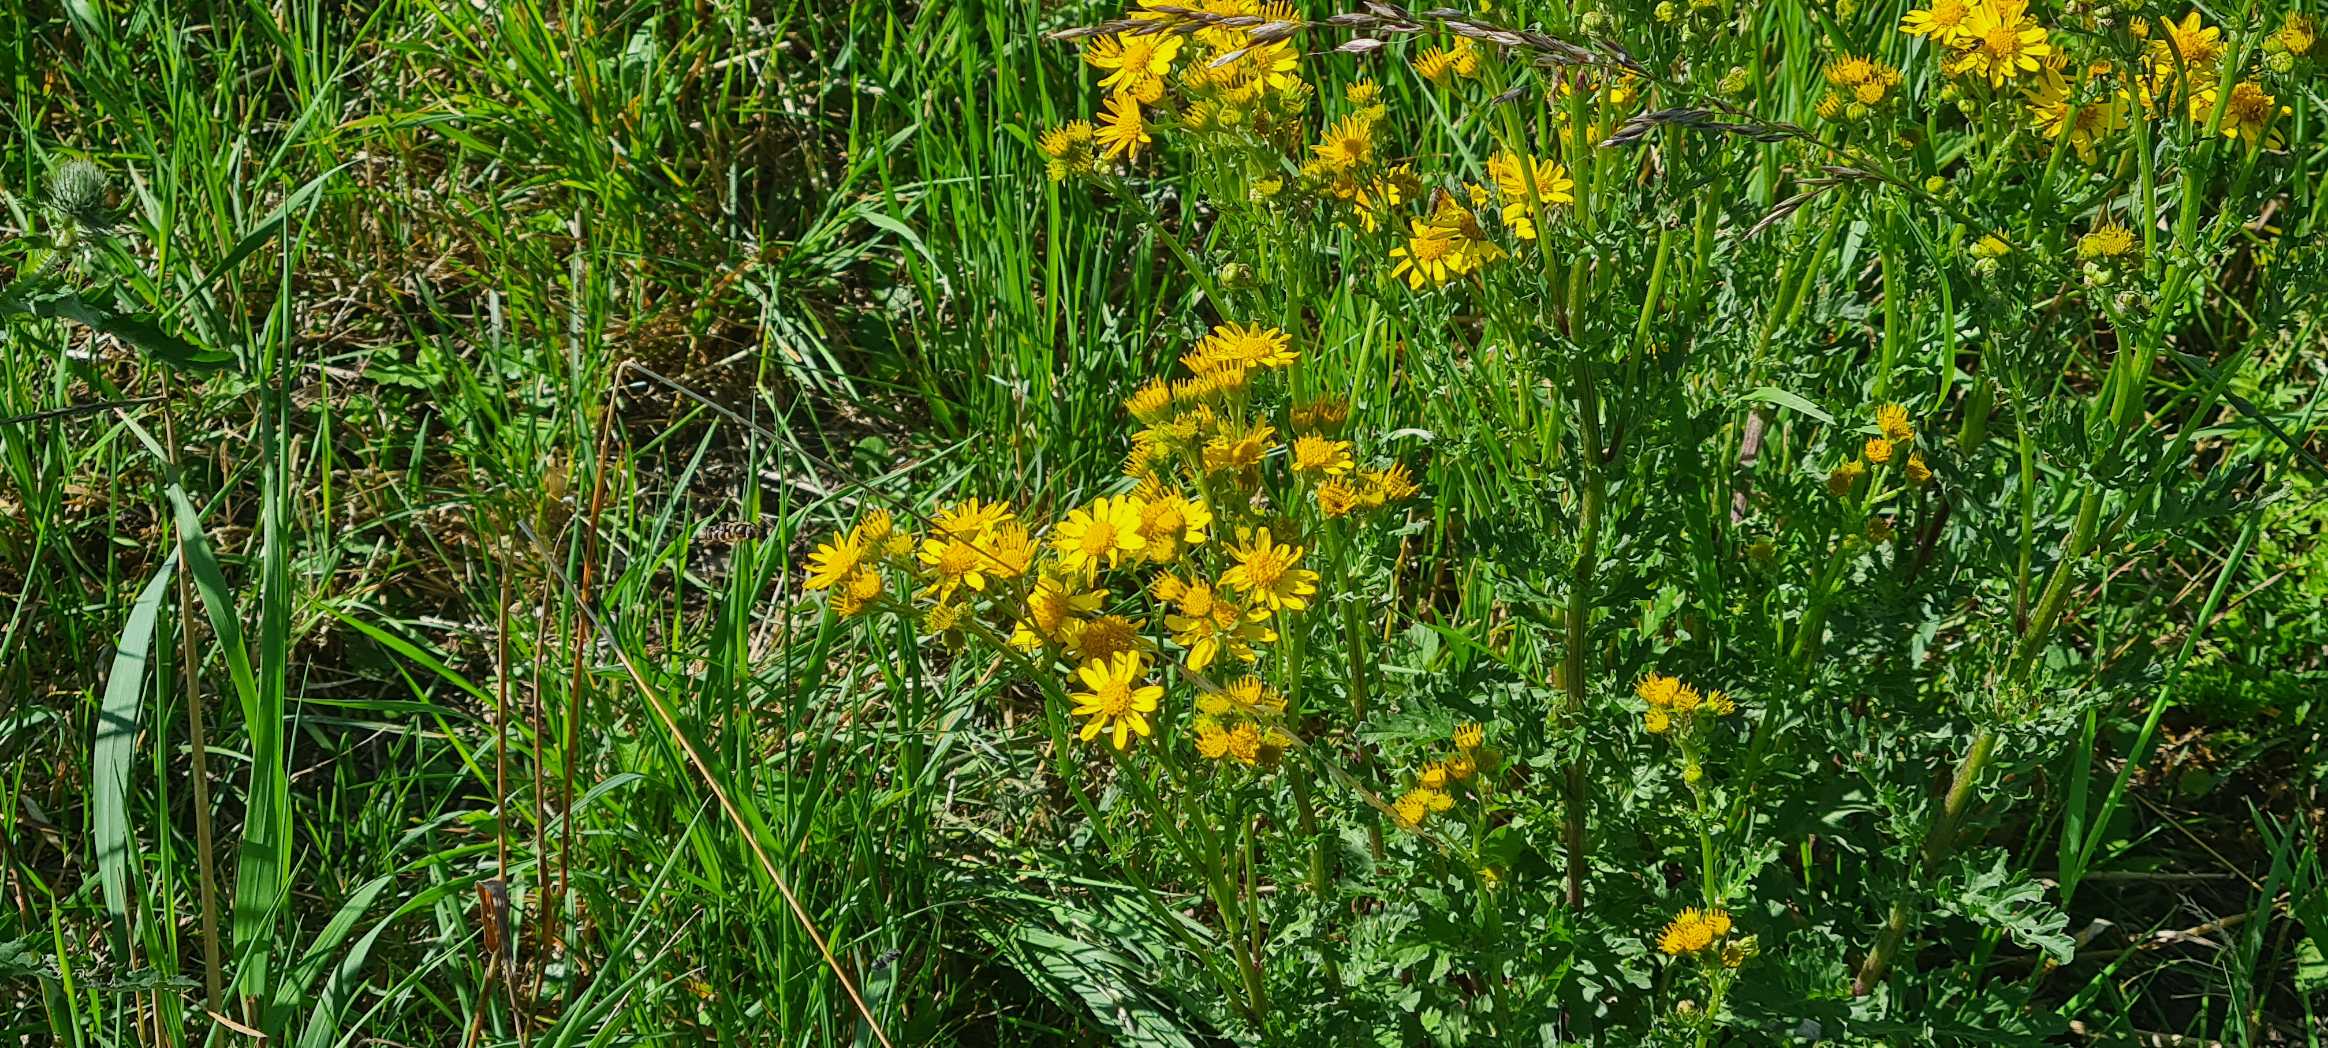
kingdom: Plantae
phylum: Tracheophyta
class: Magnoliopsida
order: Asterales
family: Asteraceae
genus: Jacobaea
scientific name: Jacobaea vulgaris
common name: Eng-brandbæger
